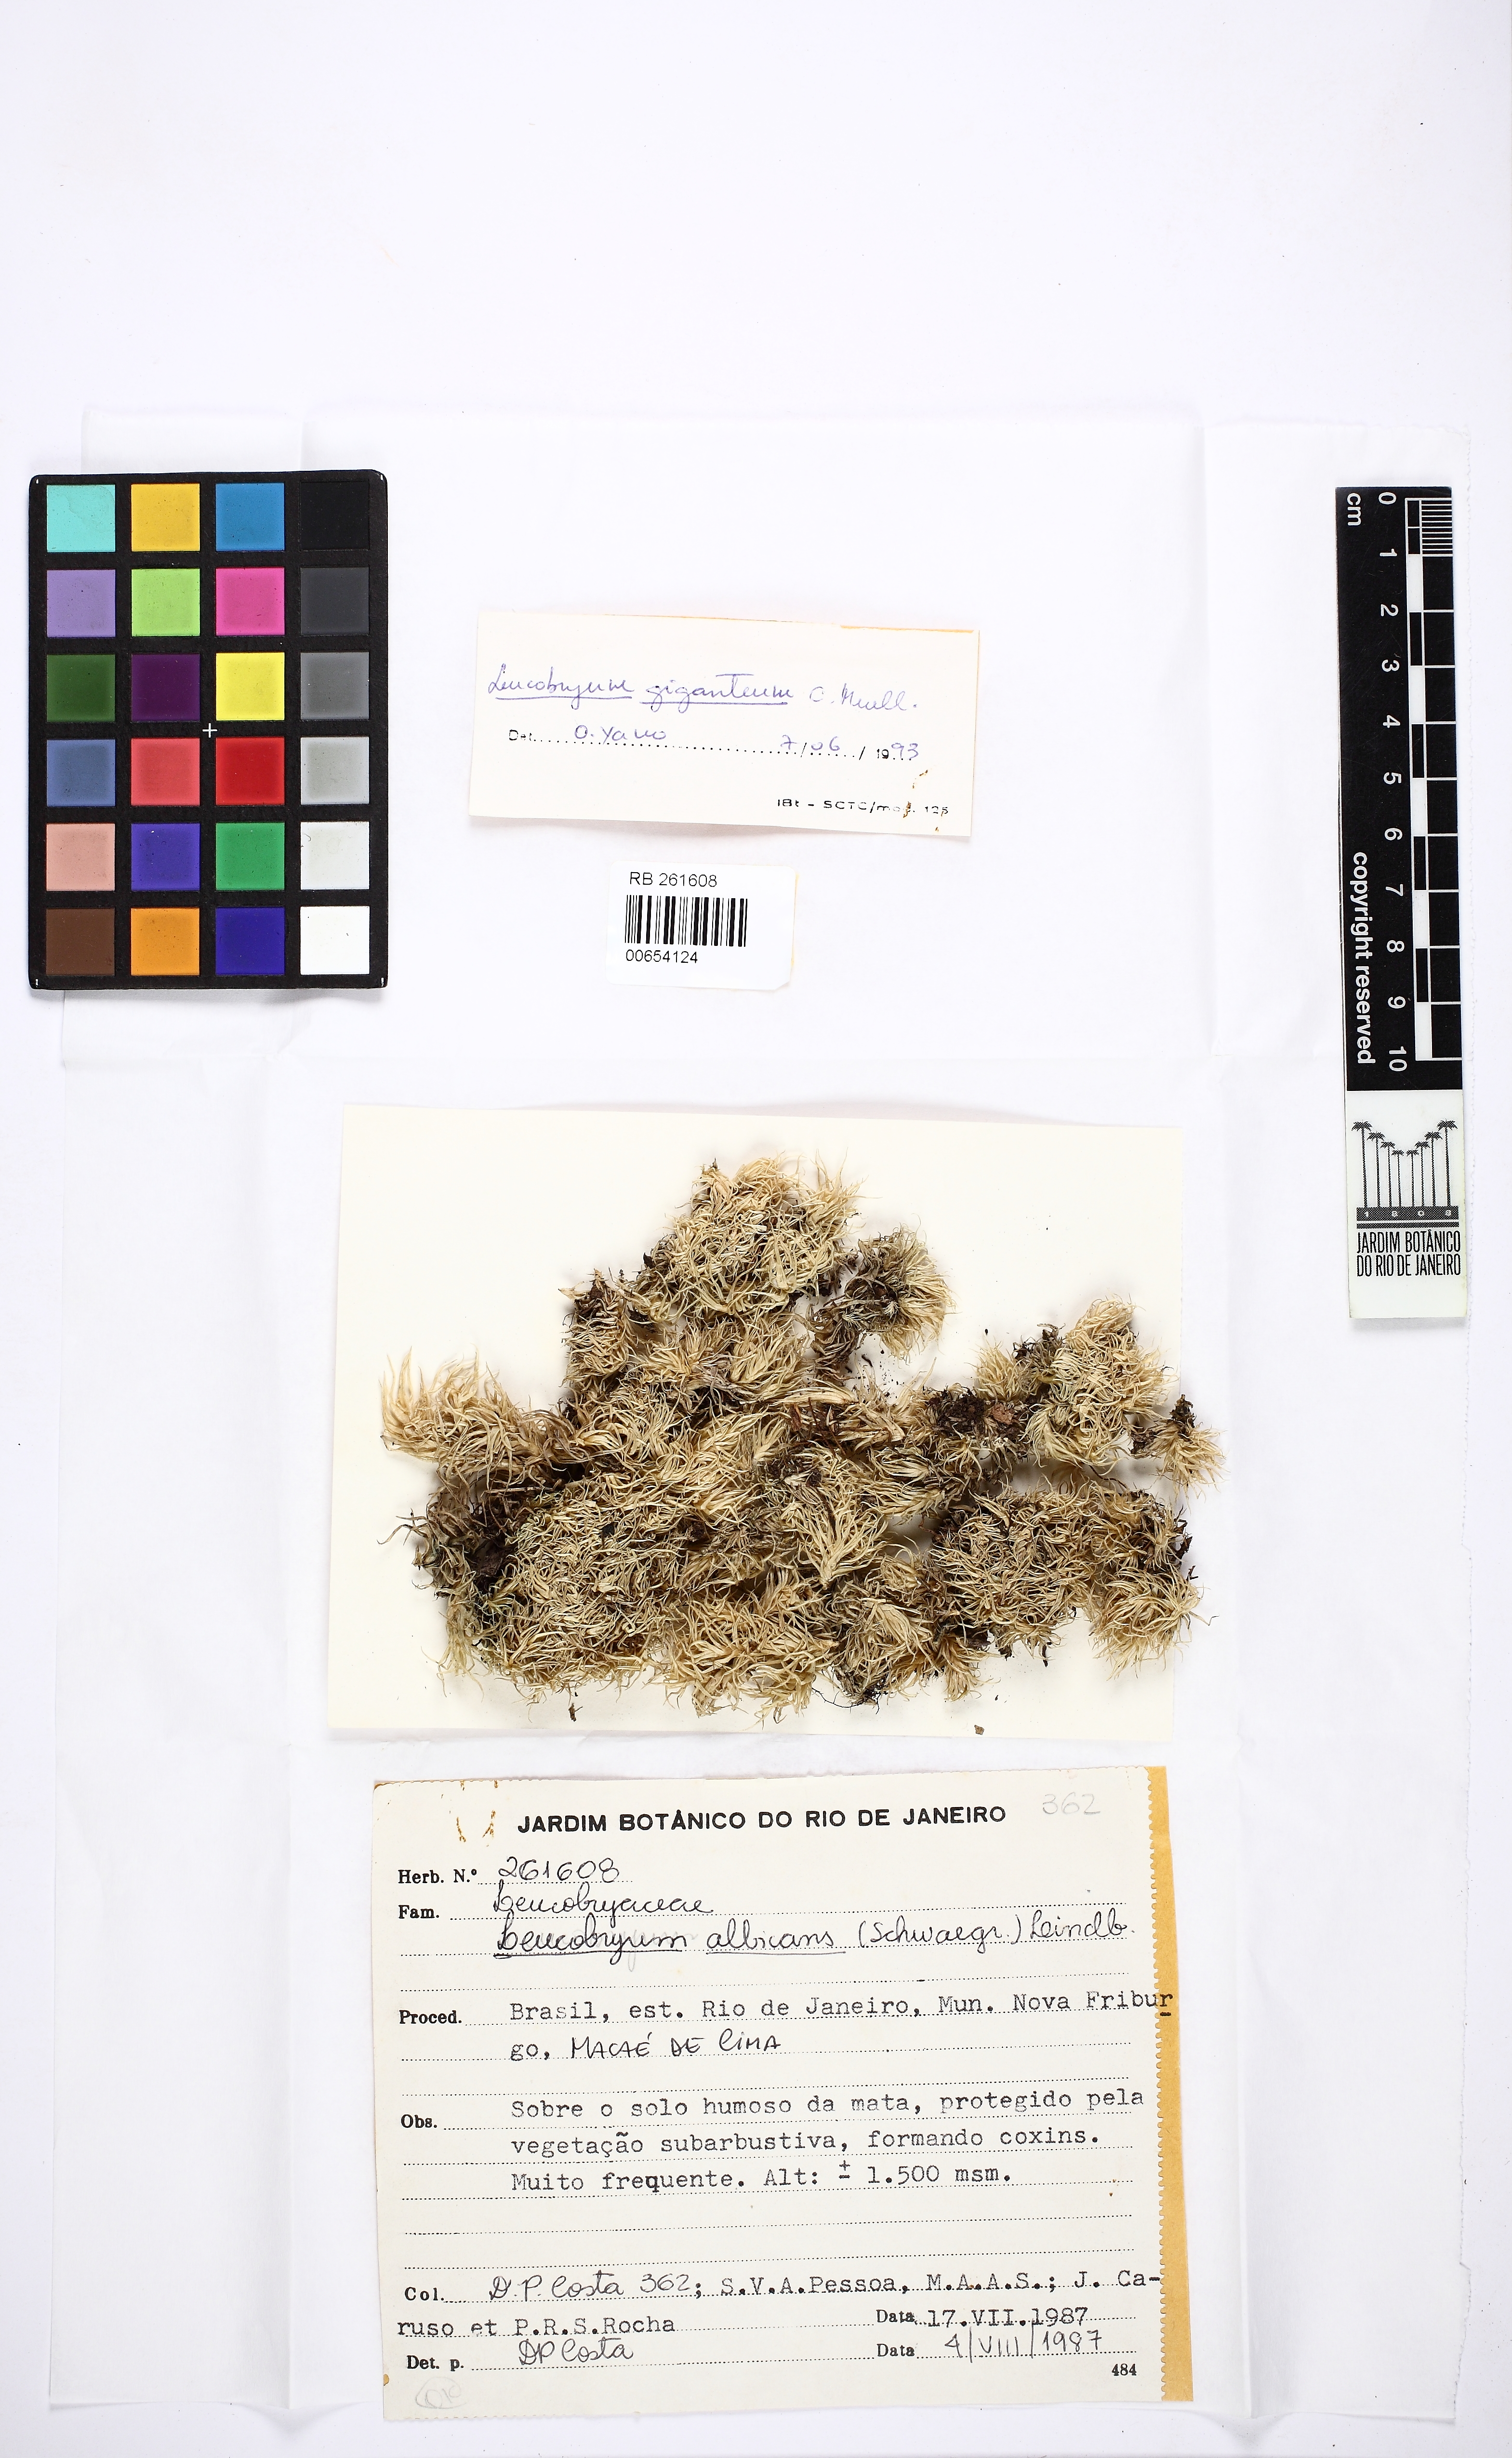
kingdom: Plantae
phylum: Bryophyta
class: Bryopsida
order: Dicranales
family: Leucobryaceae
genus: Leucobryum
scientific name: Leucobryum albicans
